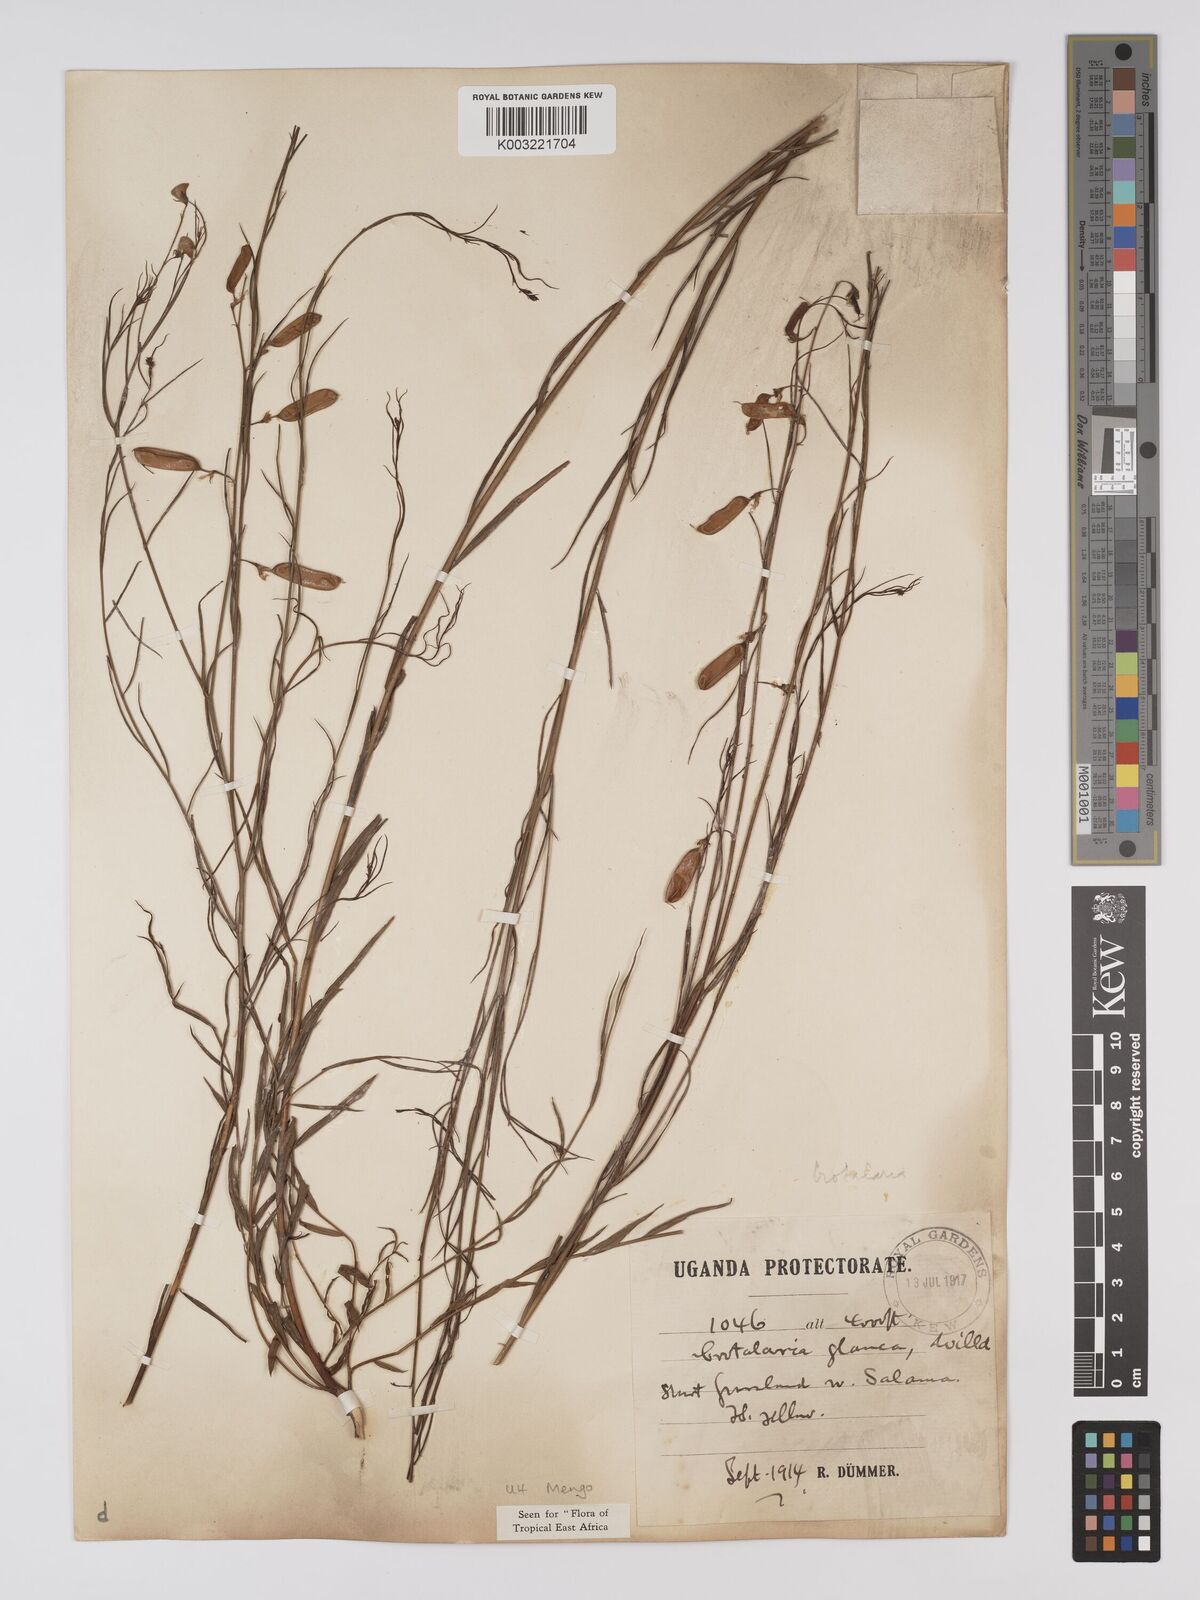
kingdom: Plantae
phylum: Tracheophyta
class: Magnoliopsida
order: Fabales
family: Fabaceae
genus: Crotalaria
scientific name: Crotalaria glauca
